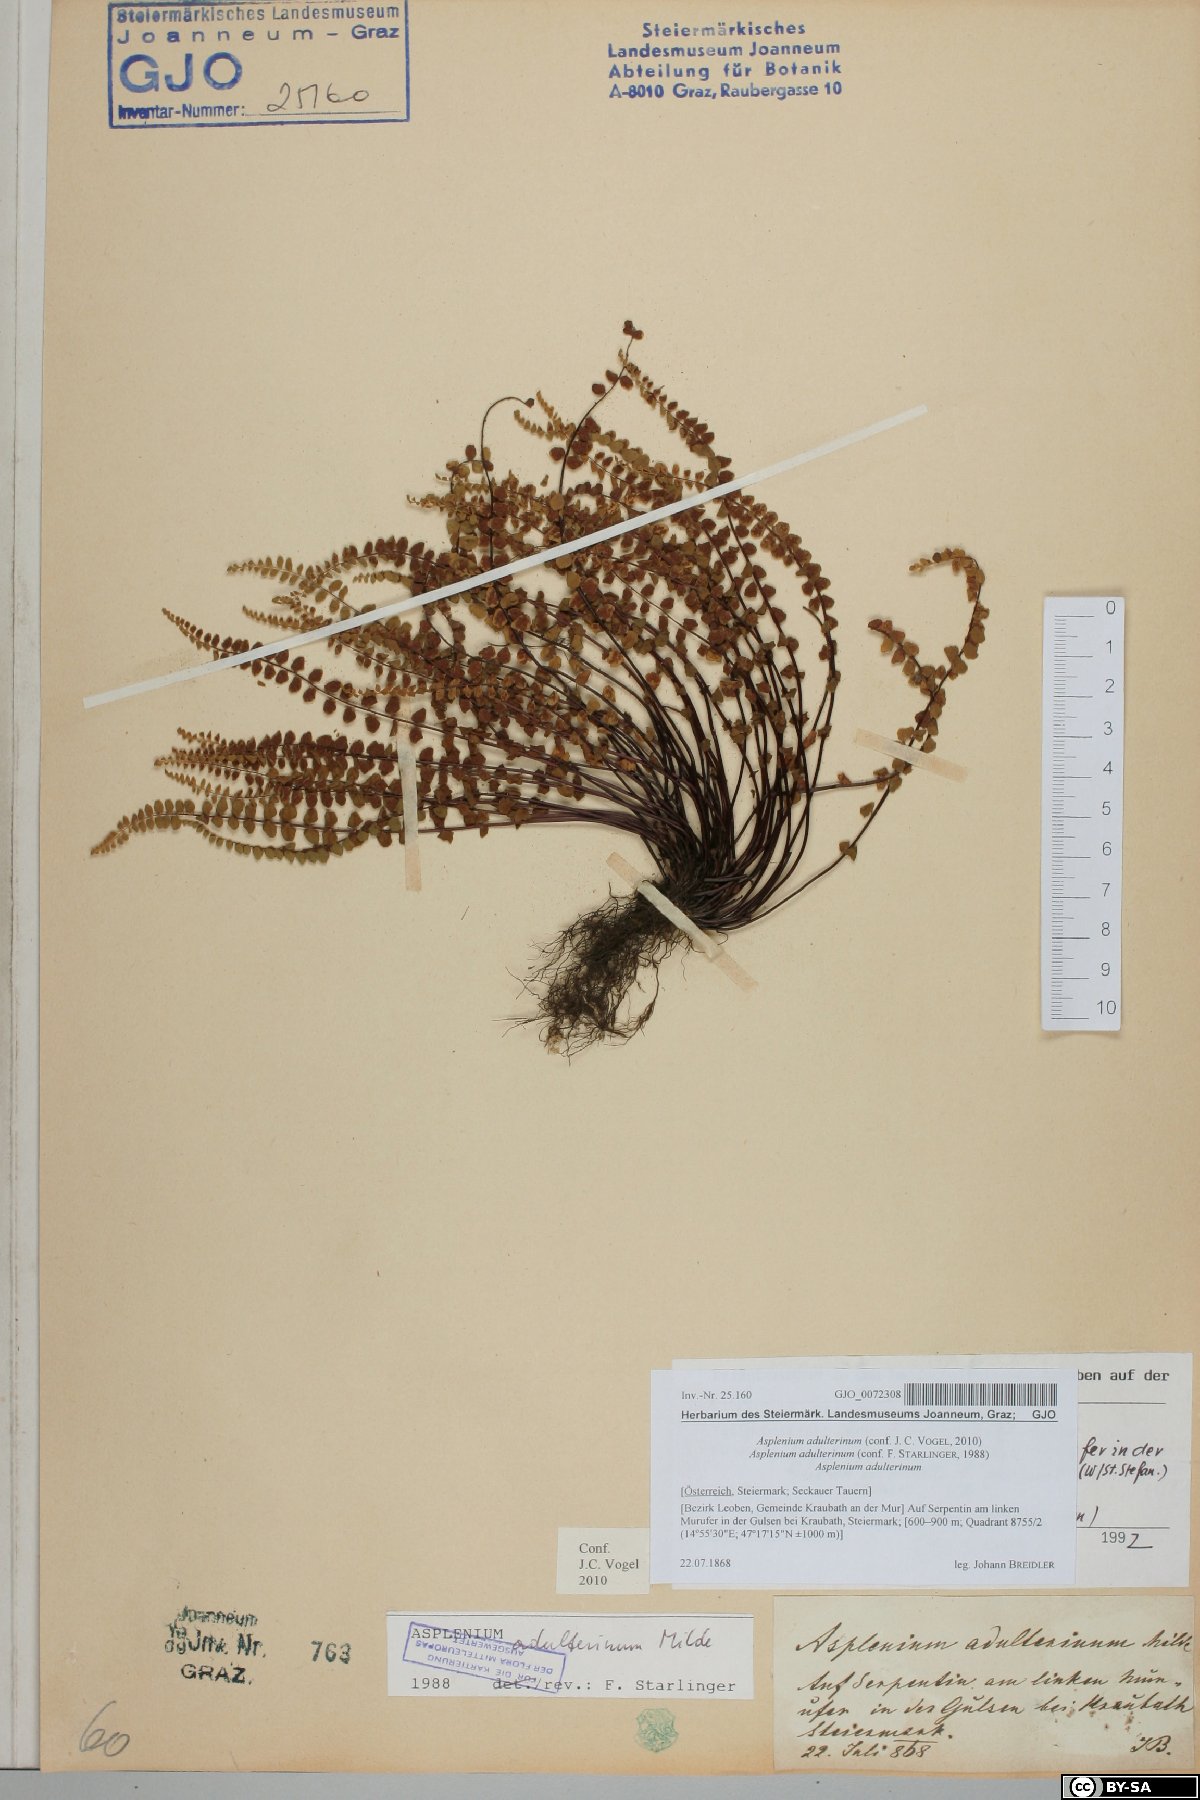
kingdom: Plantae
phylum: Tracheophyta
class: Polypodiopsida
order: Polypodiales
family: Aspleniaceae
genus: Asplenium
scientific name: Asplenium adulterinum
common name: Adulterated spleenwort
